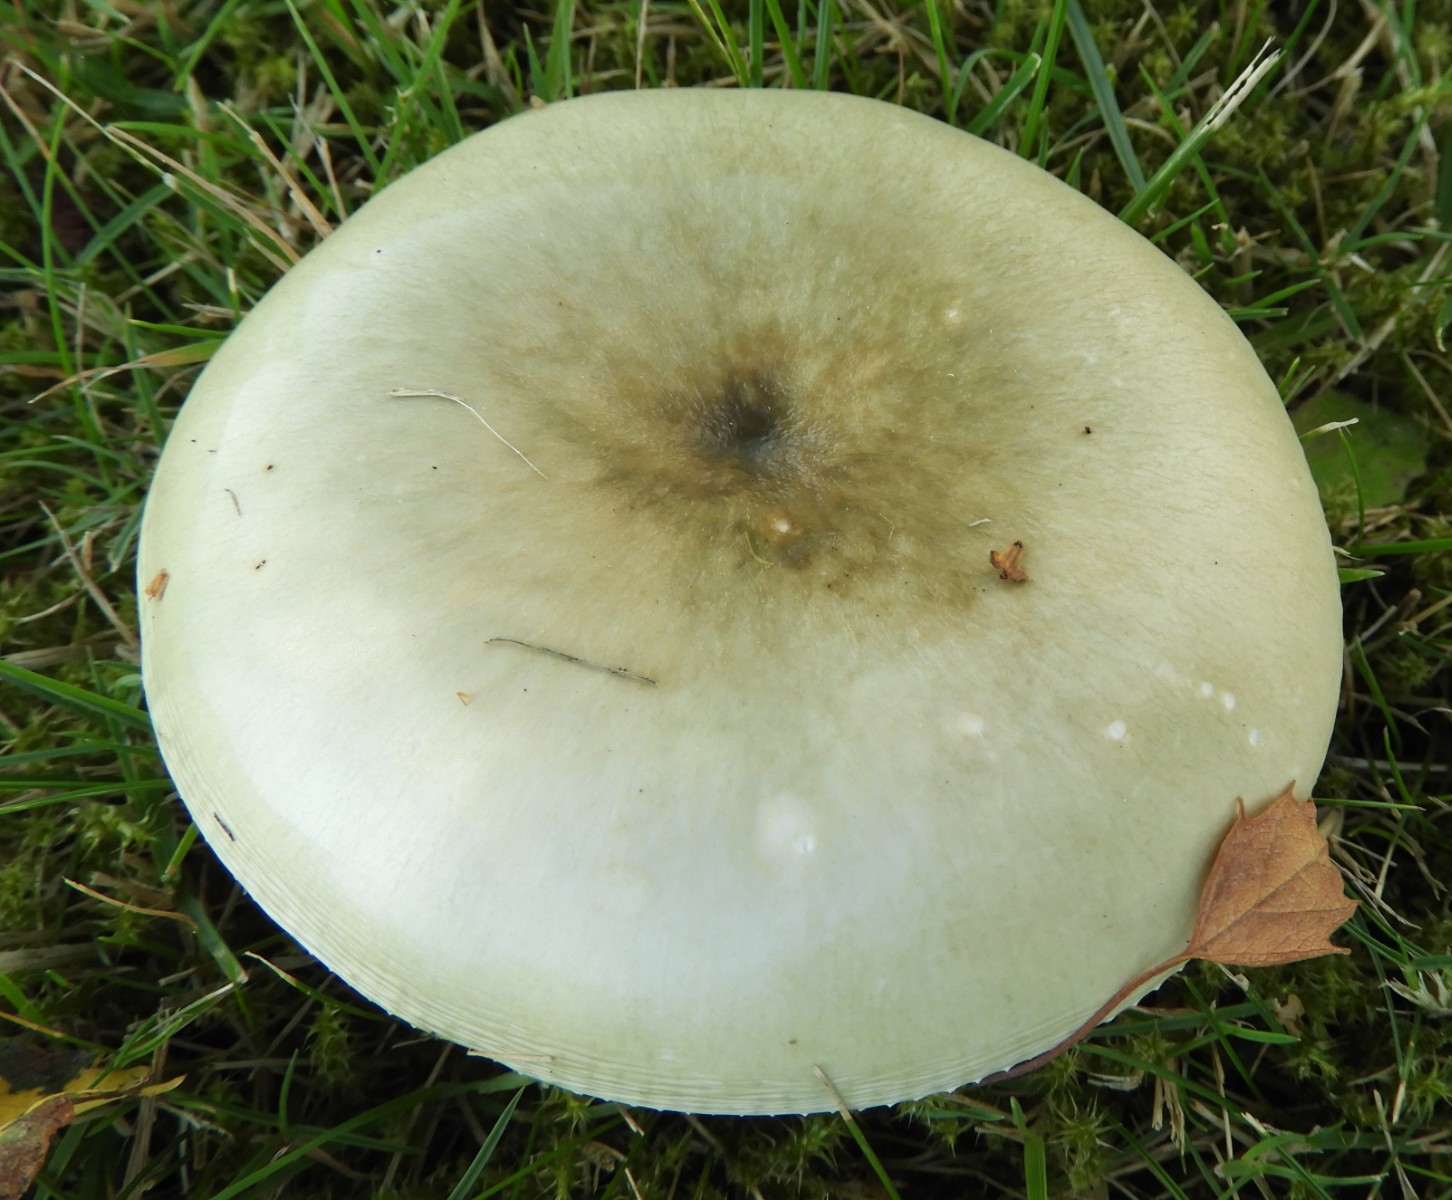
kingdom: Fungi
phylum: Basidiomycota
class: Agaricomycetes
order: Russulales
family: Russulaceae
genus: Russula
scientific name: Russula aeruginea
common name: græsgrøn skørhat
